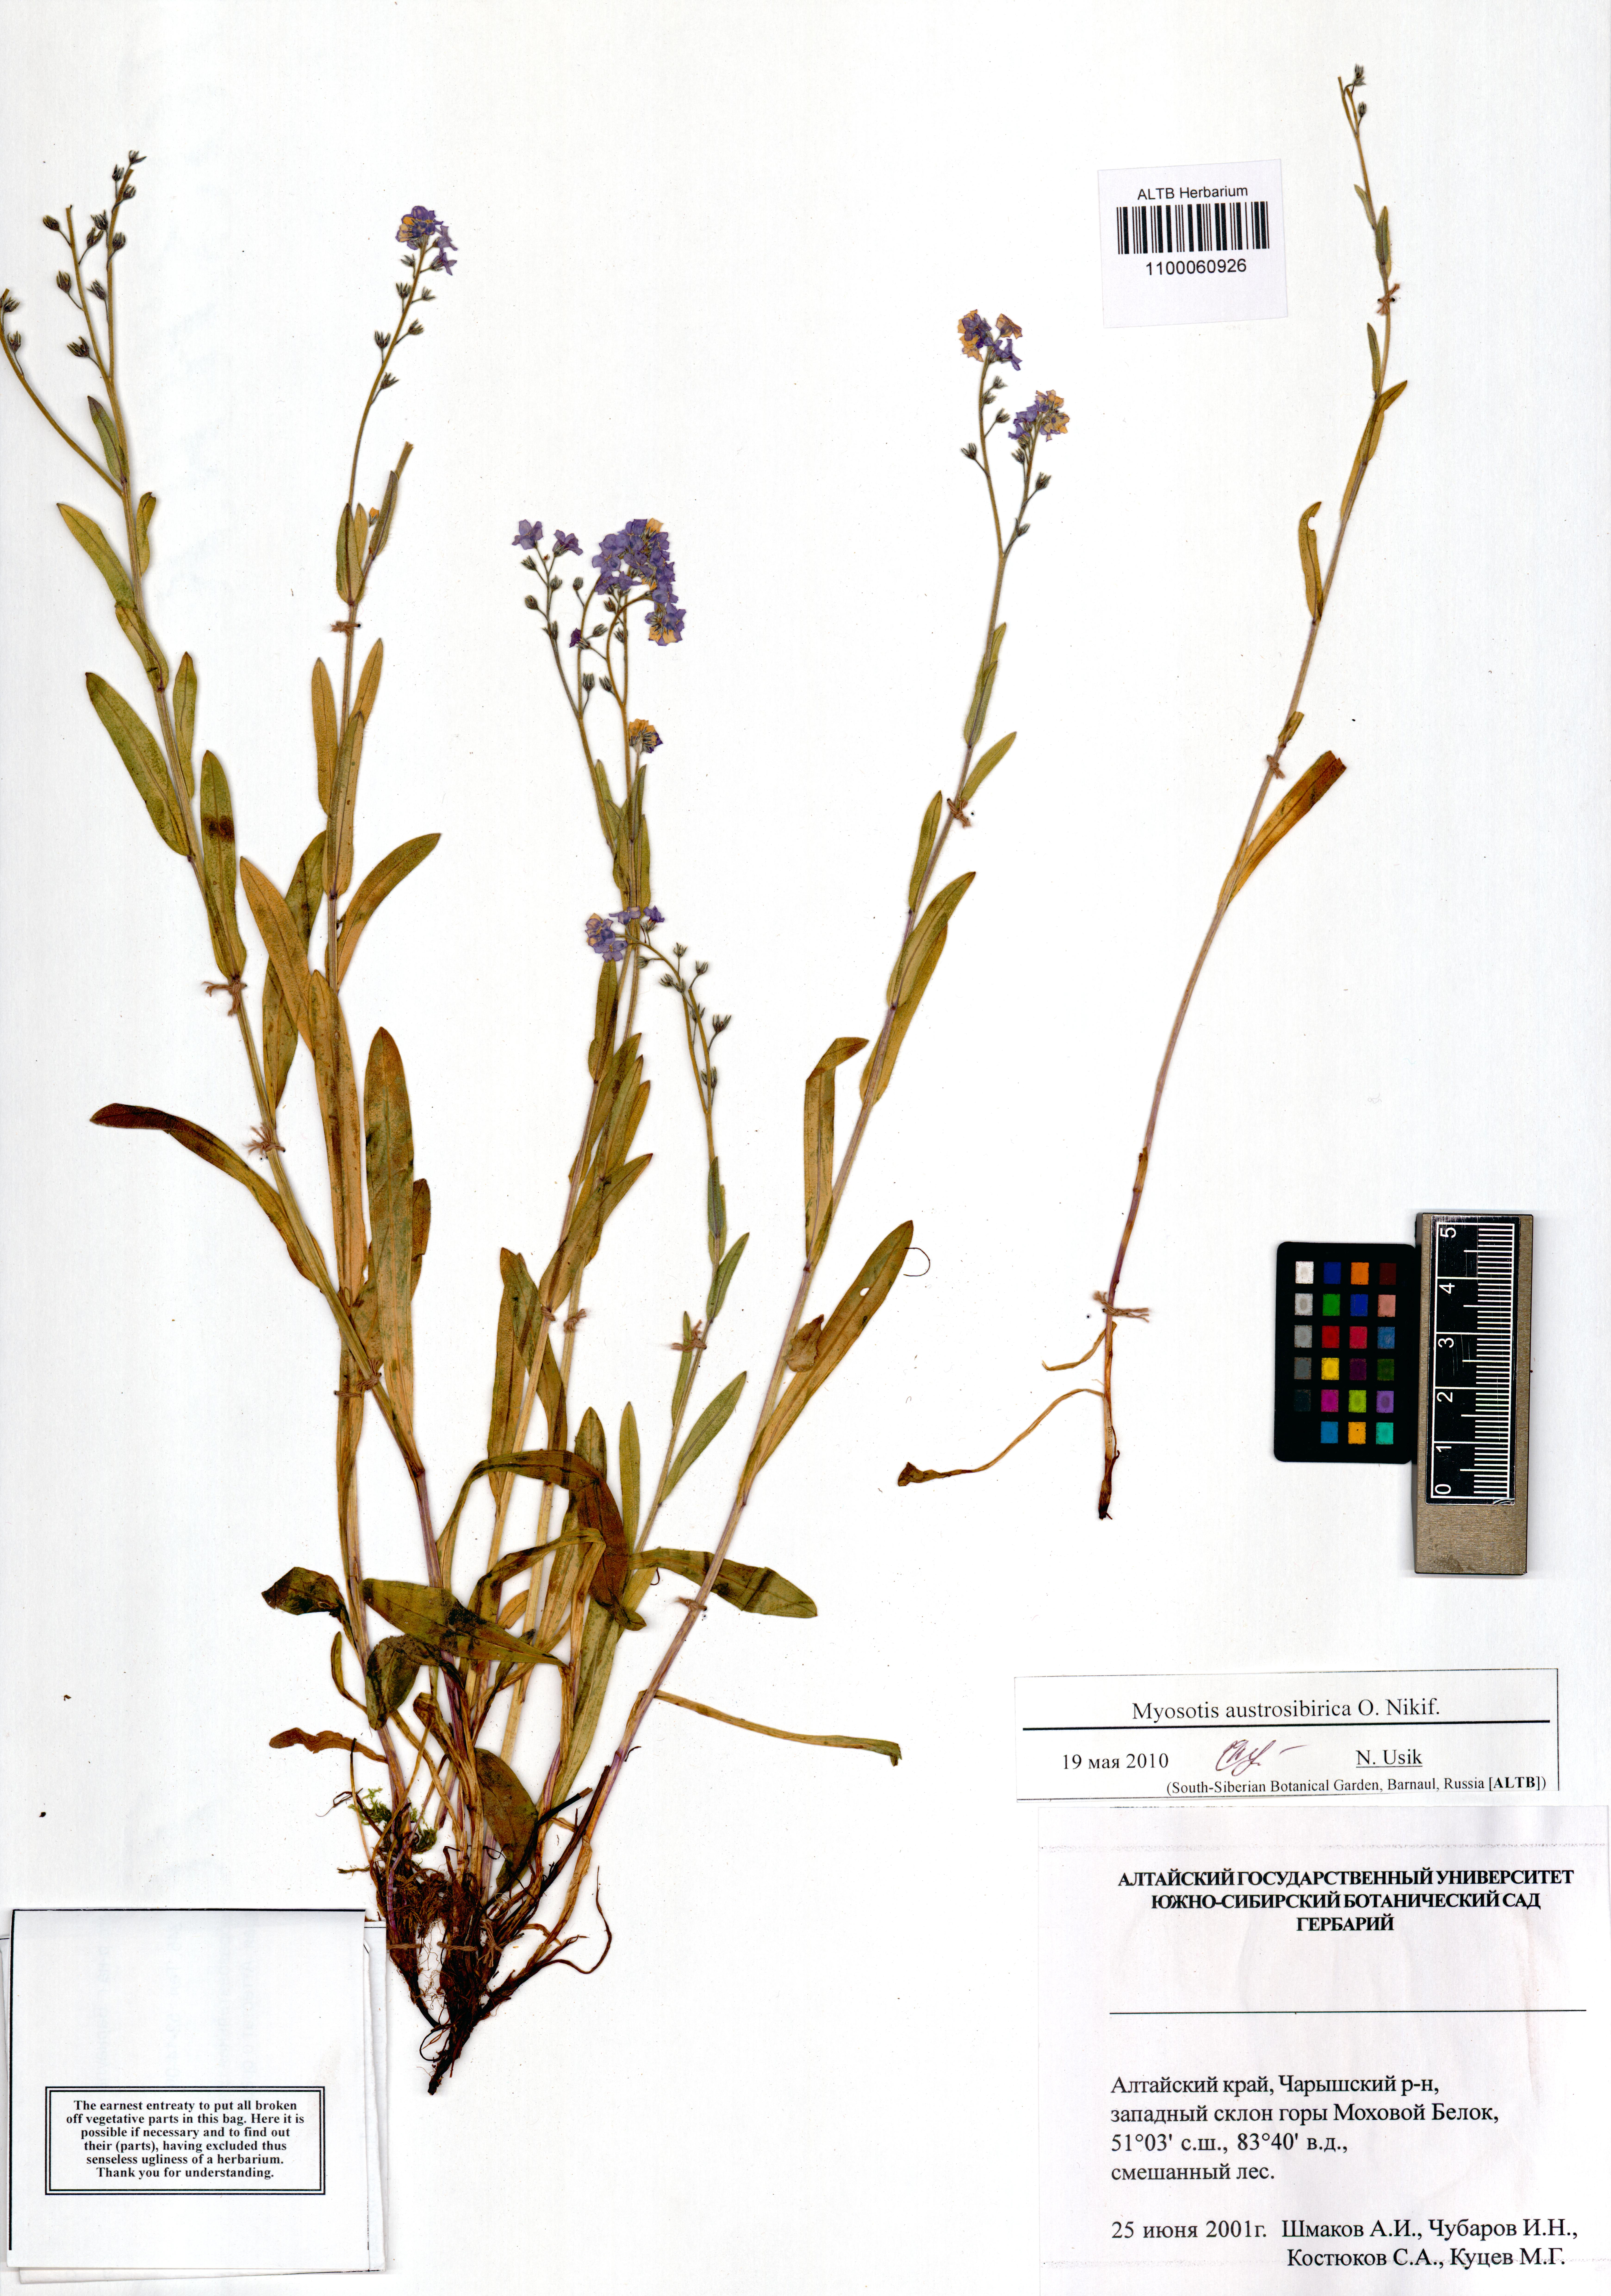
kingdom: Plantae
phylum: Tracheophyta
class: Magnoliopsida
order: Boraginales
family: Boraginaceae
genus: Myosotis
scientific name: Myosotis austrosibirica
